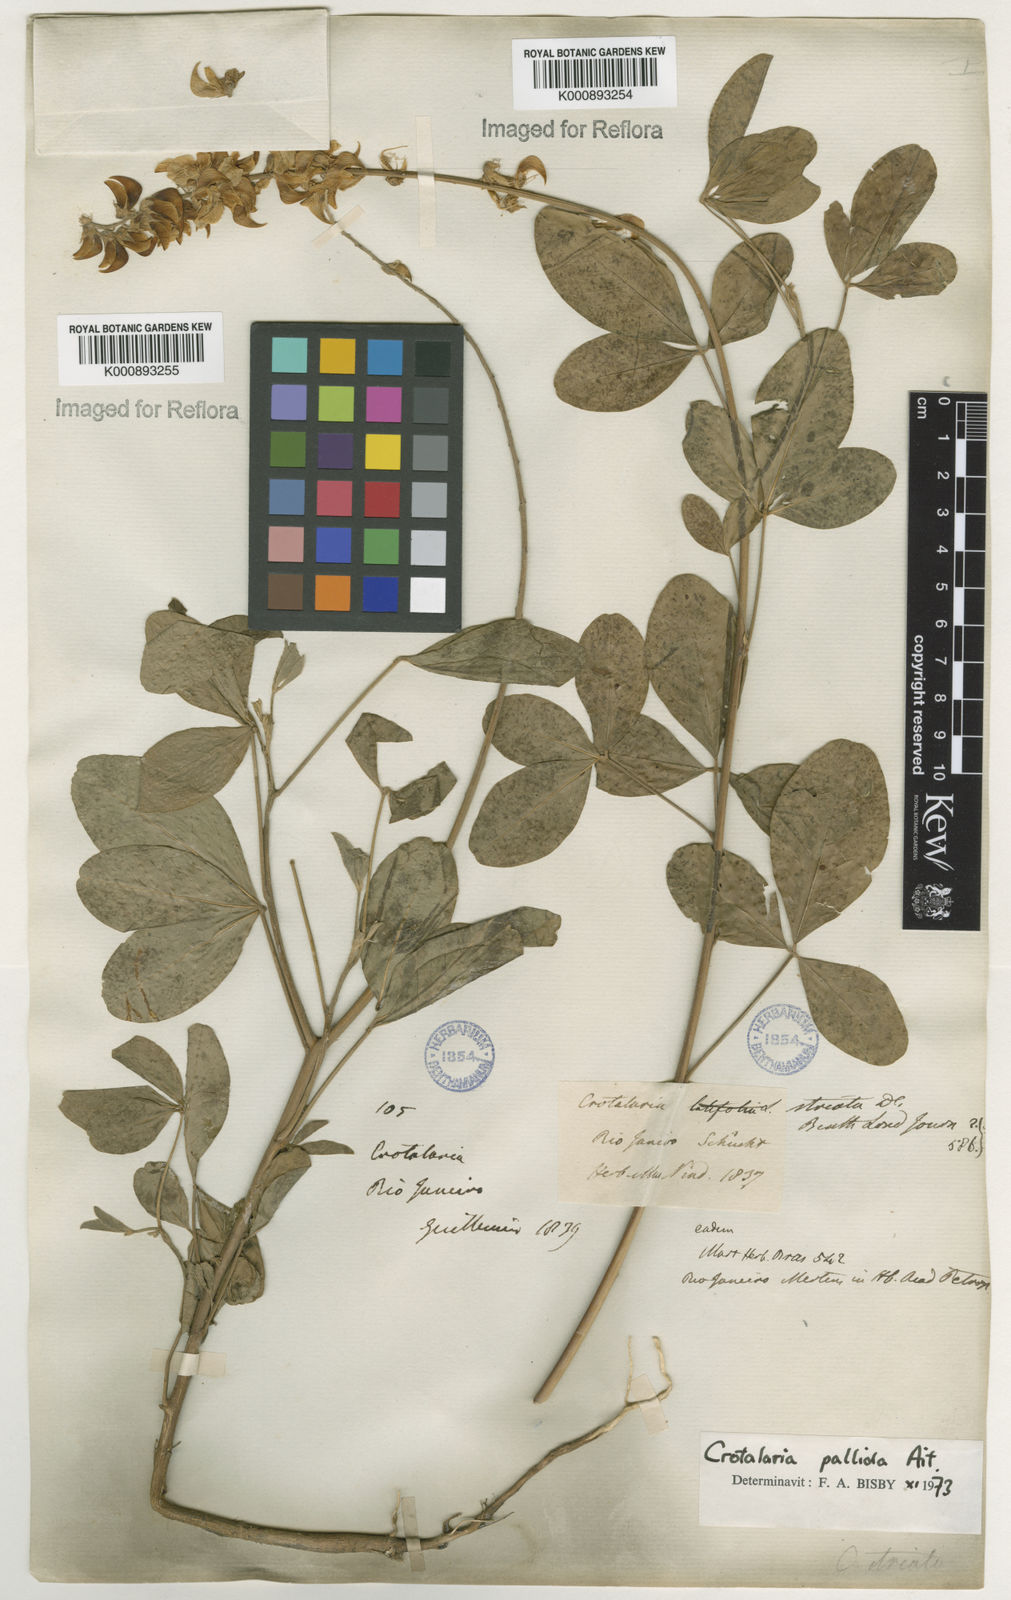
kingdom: Plantae
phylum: Tracheophyta
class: Magnoliopsida
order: Fabales
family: Fabaceae
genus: Crotalaria
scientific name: Crotalaria pallida
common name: Smooth rattlebox
